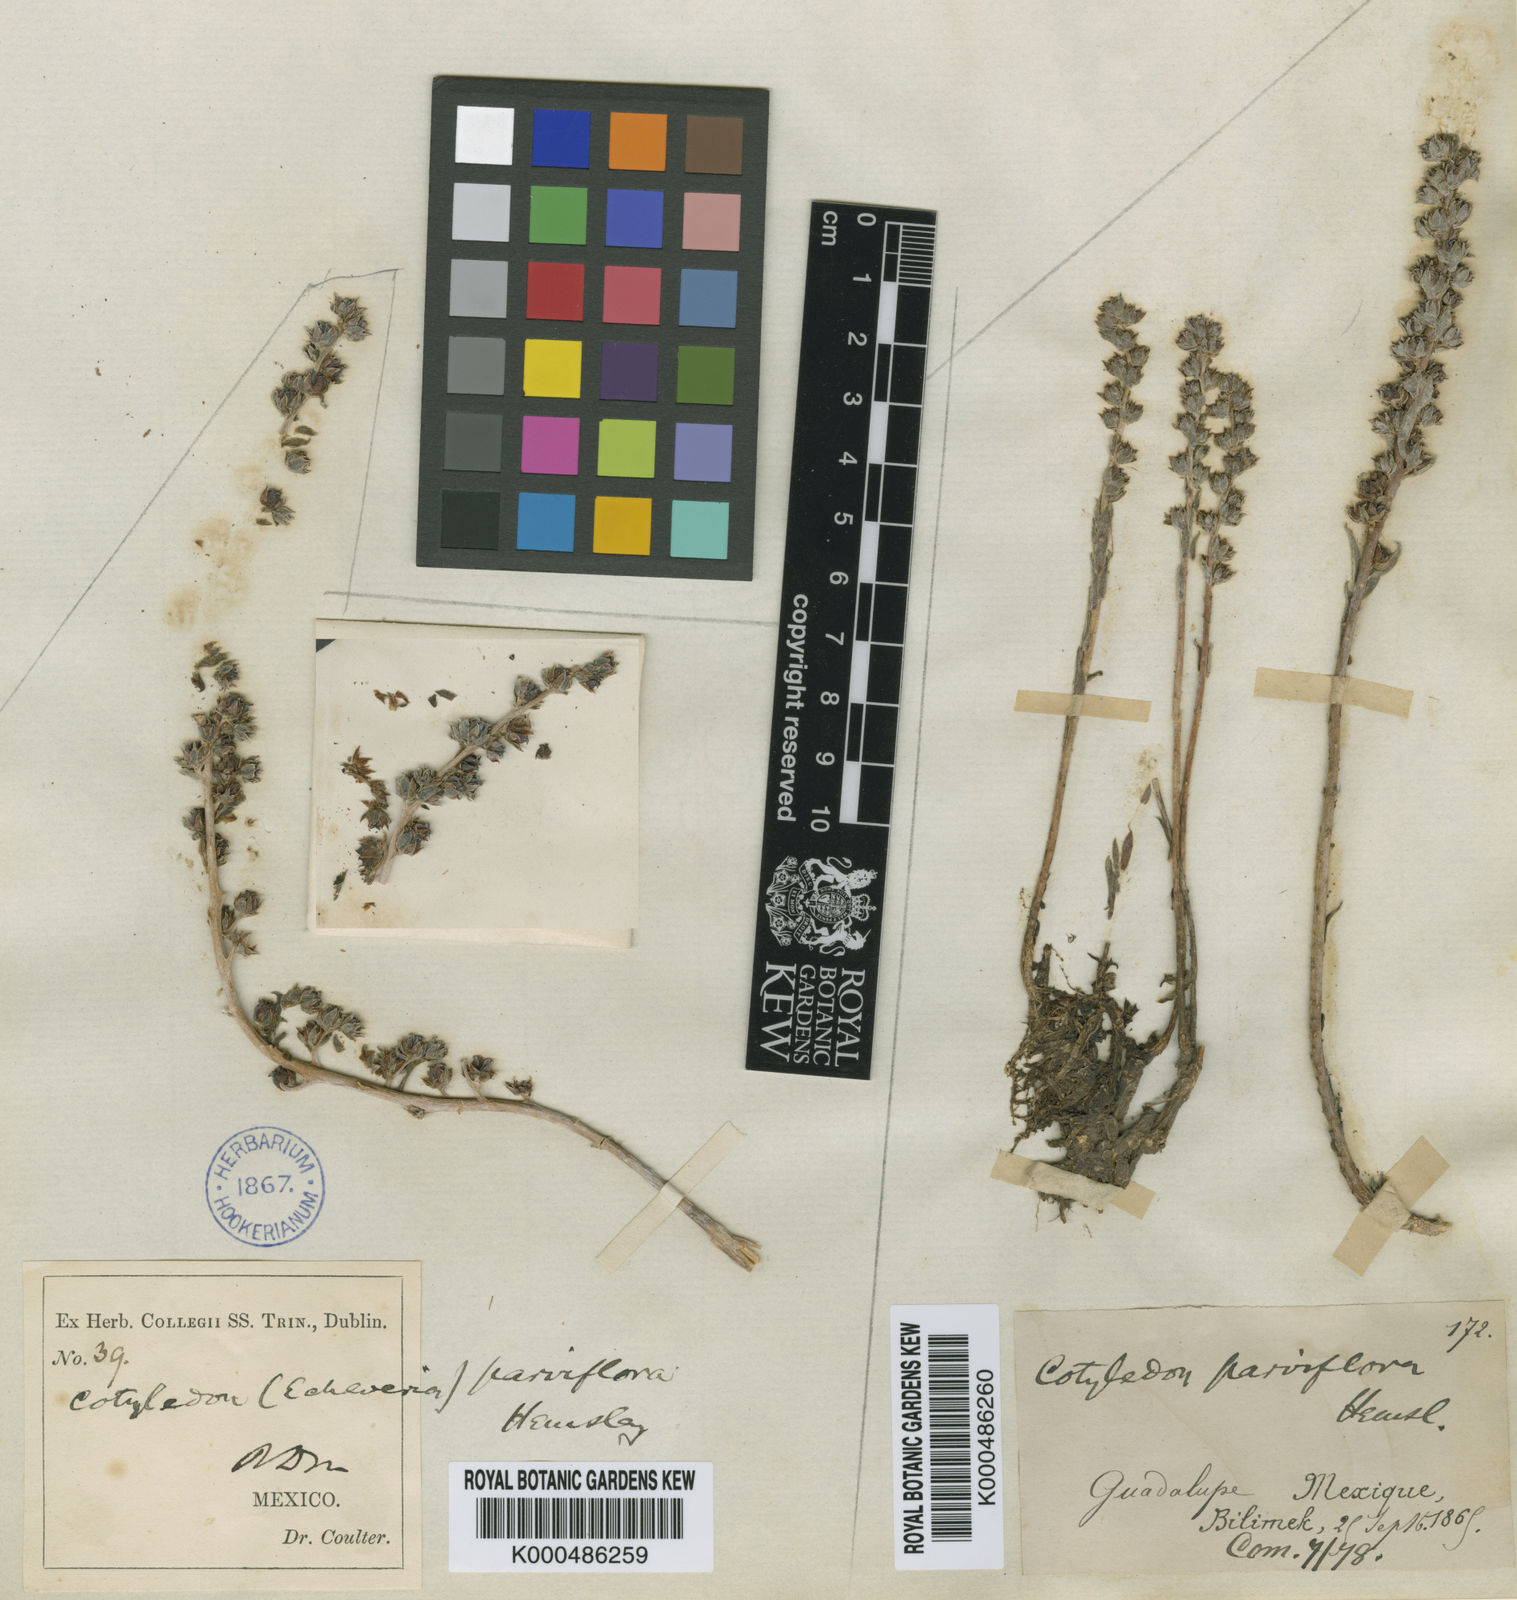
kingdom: Plantae
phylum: Tracheophyta
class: Magnoliopsida
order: Saxifragales
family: Crassulaceae
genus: Villadia
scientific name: Villadia misera
